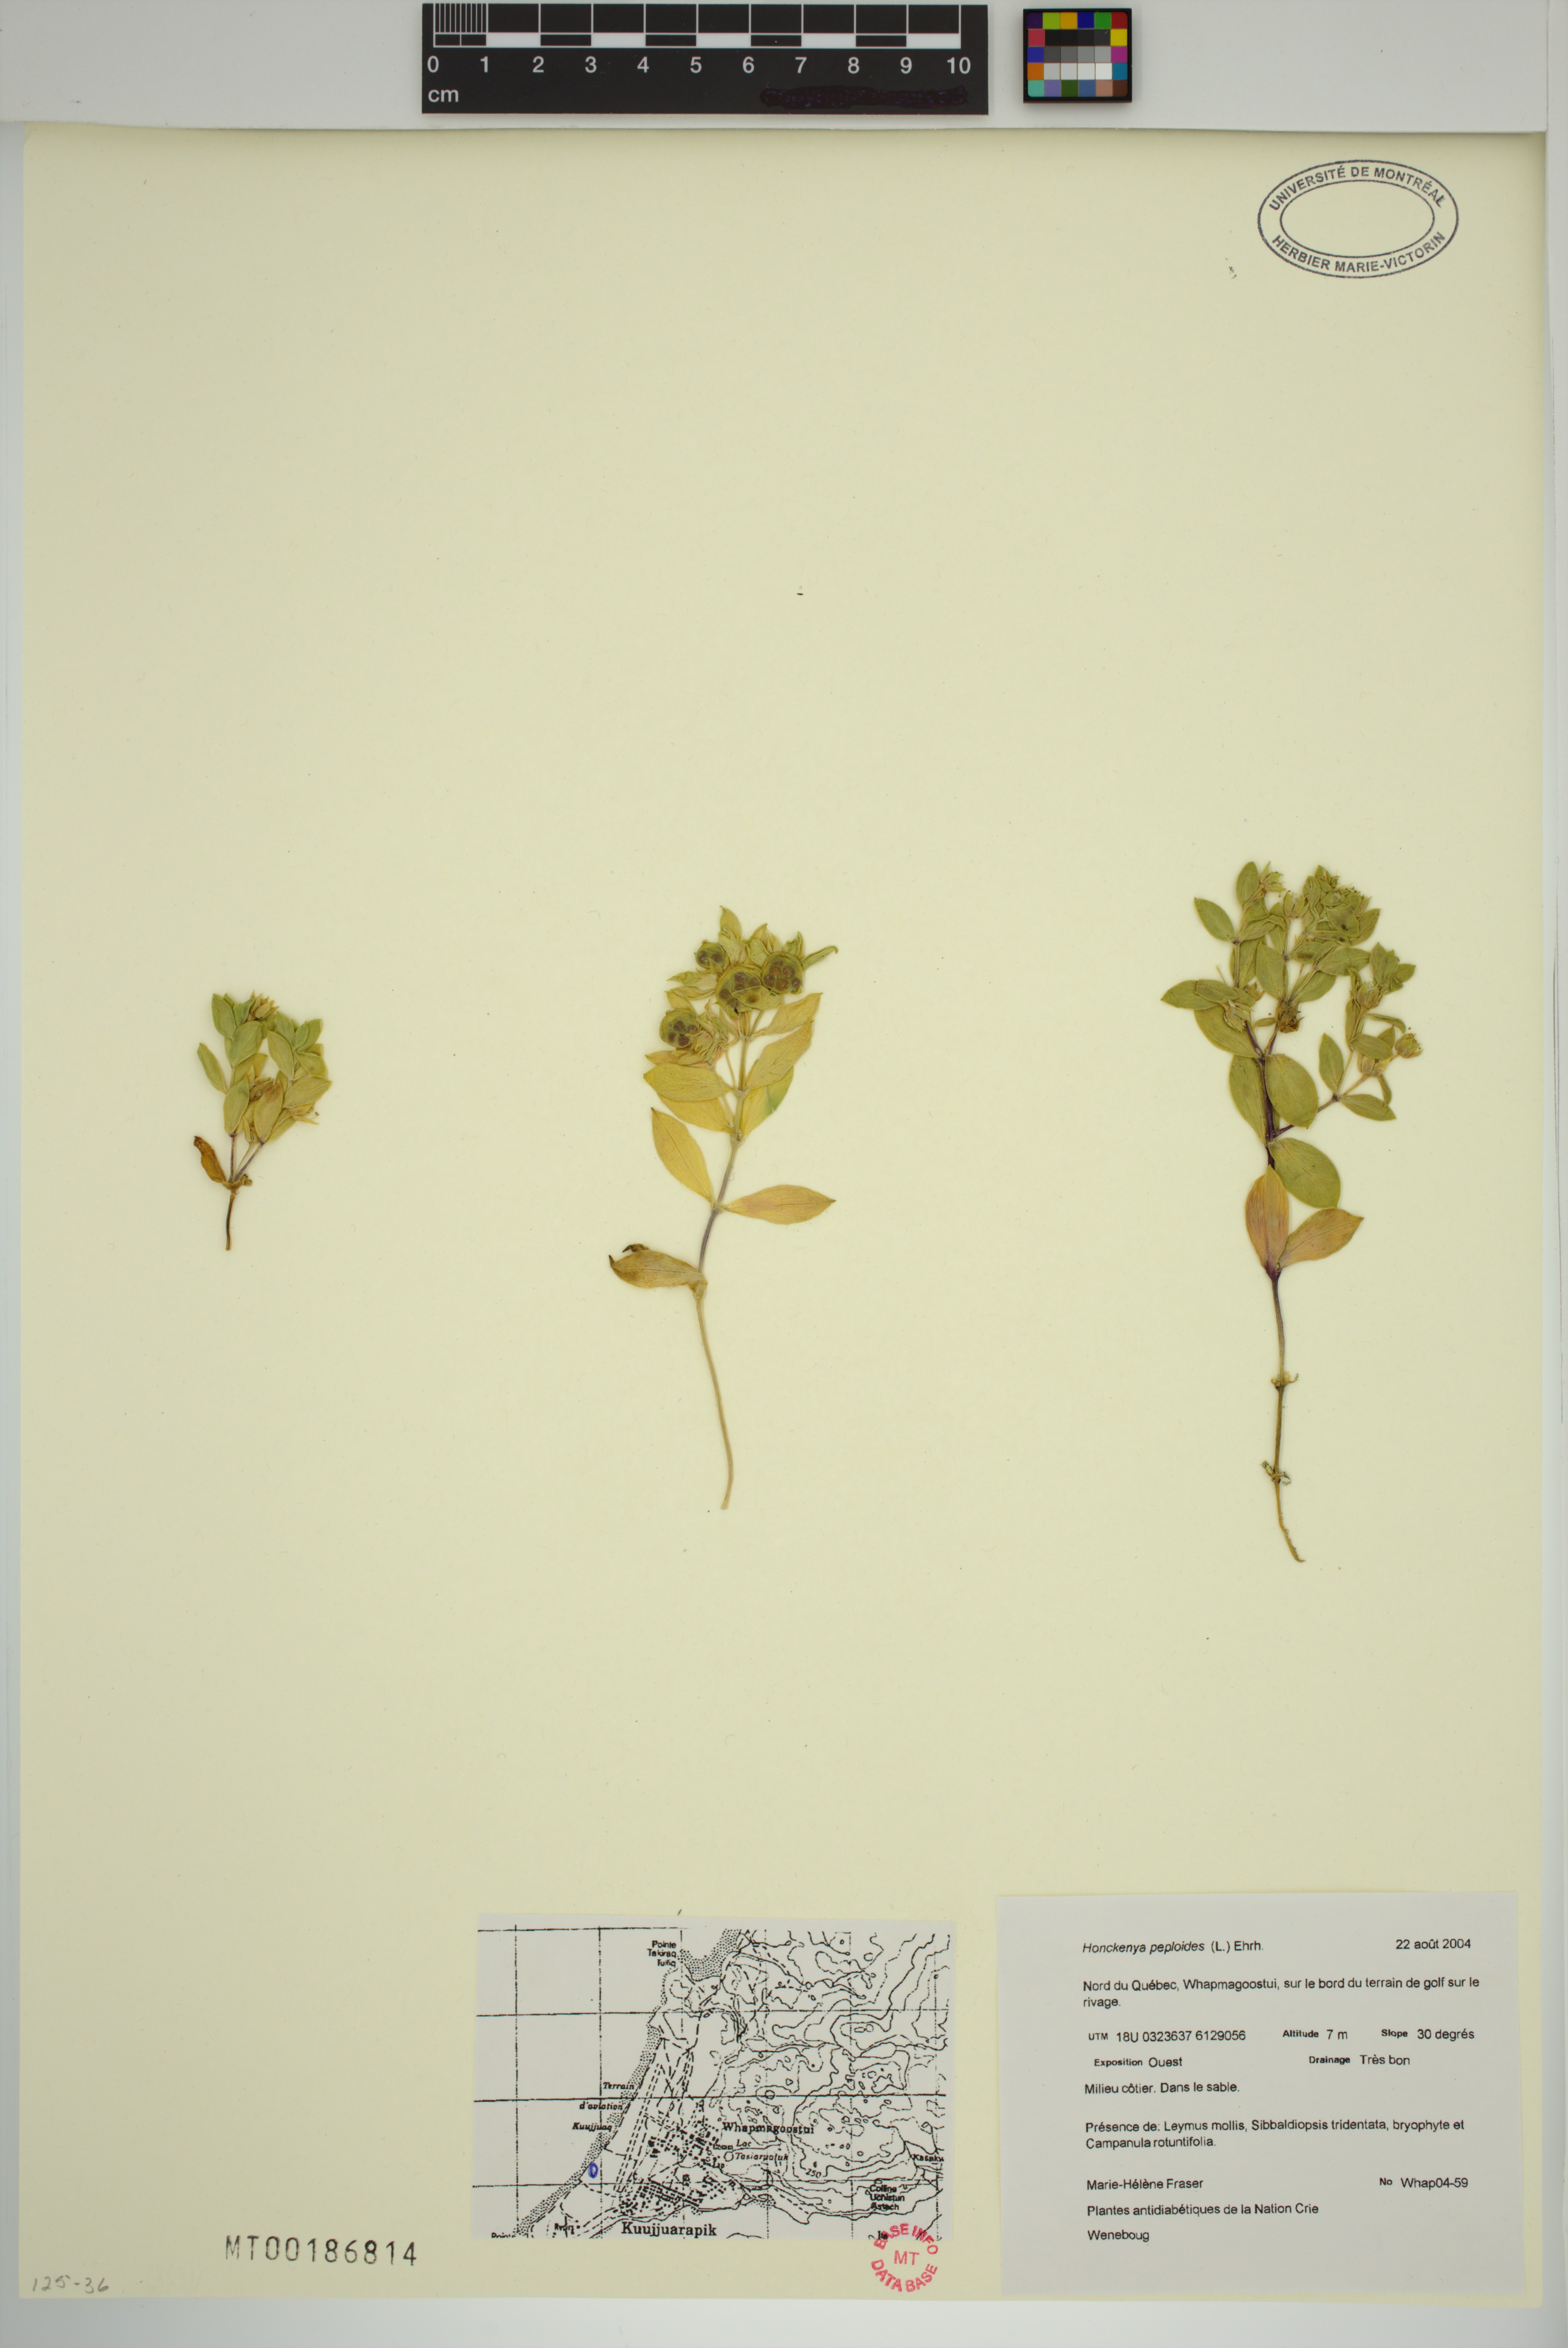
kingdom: Plantae
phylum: Tracheophyta
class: Magnoliopsida
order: Caryophyllales
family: Caryophyllaceae
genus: Honckenya
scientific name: Honckenya peploides
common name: Sea sandwort
